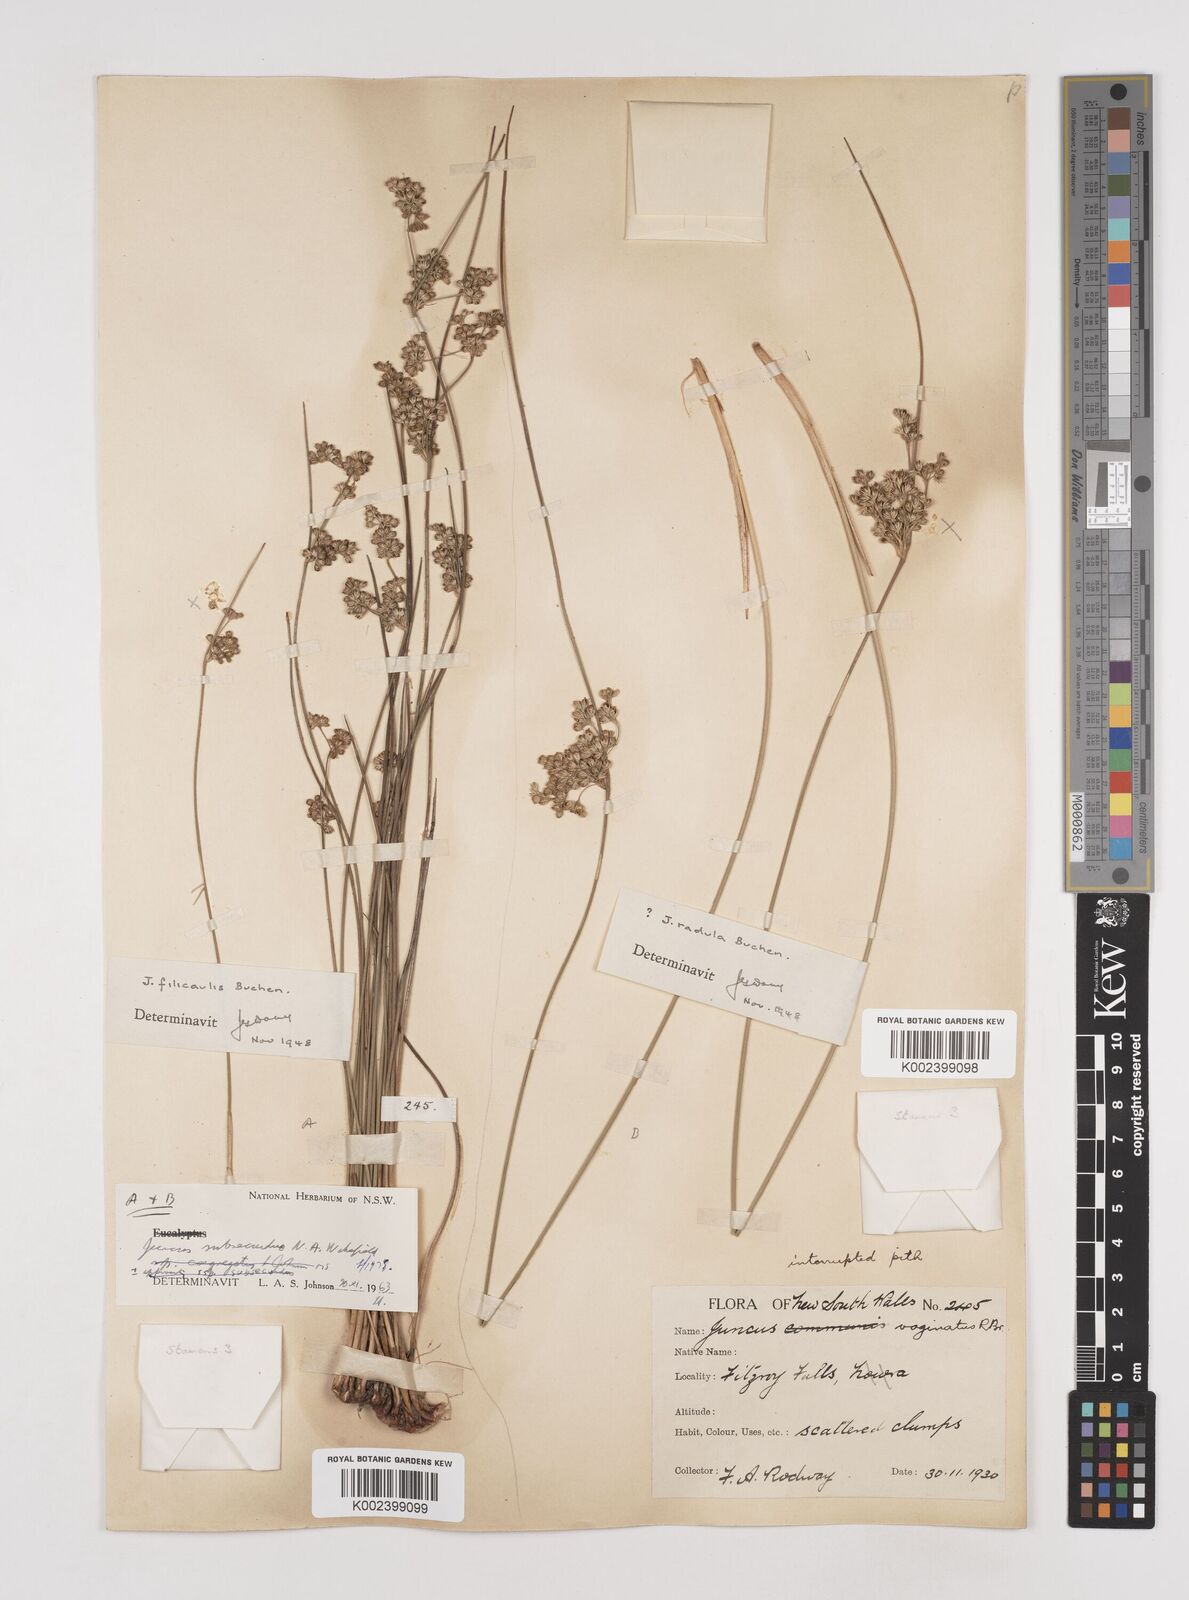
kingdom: Plantae
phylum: Tracheophyta
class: Liliopsida
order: Poales
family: Juncaceae
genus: Juncus
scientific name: Juncus subsecundus
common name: Fingered rush
